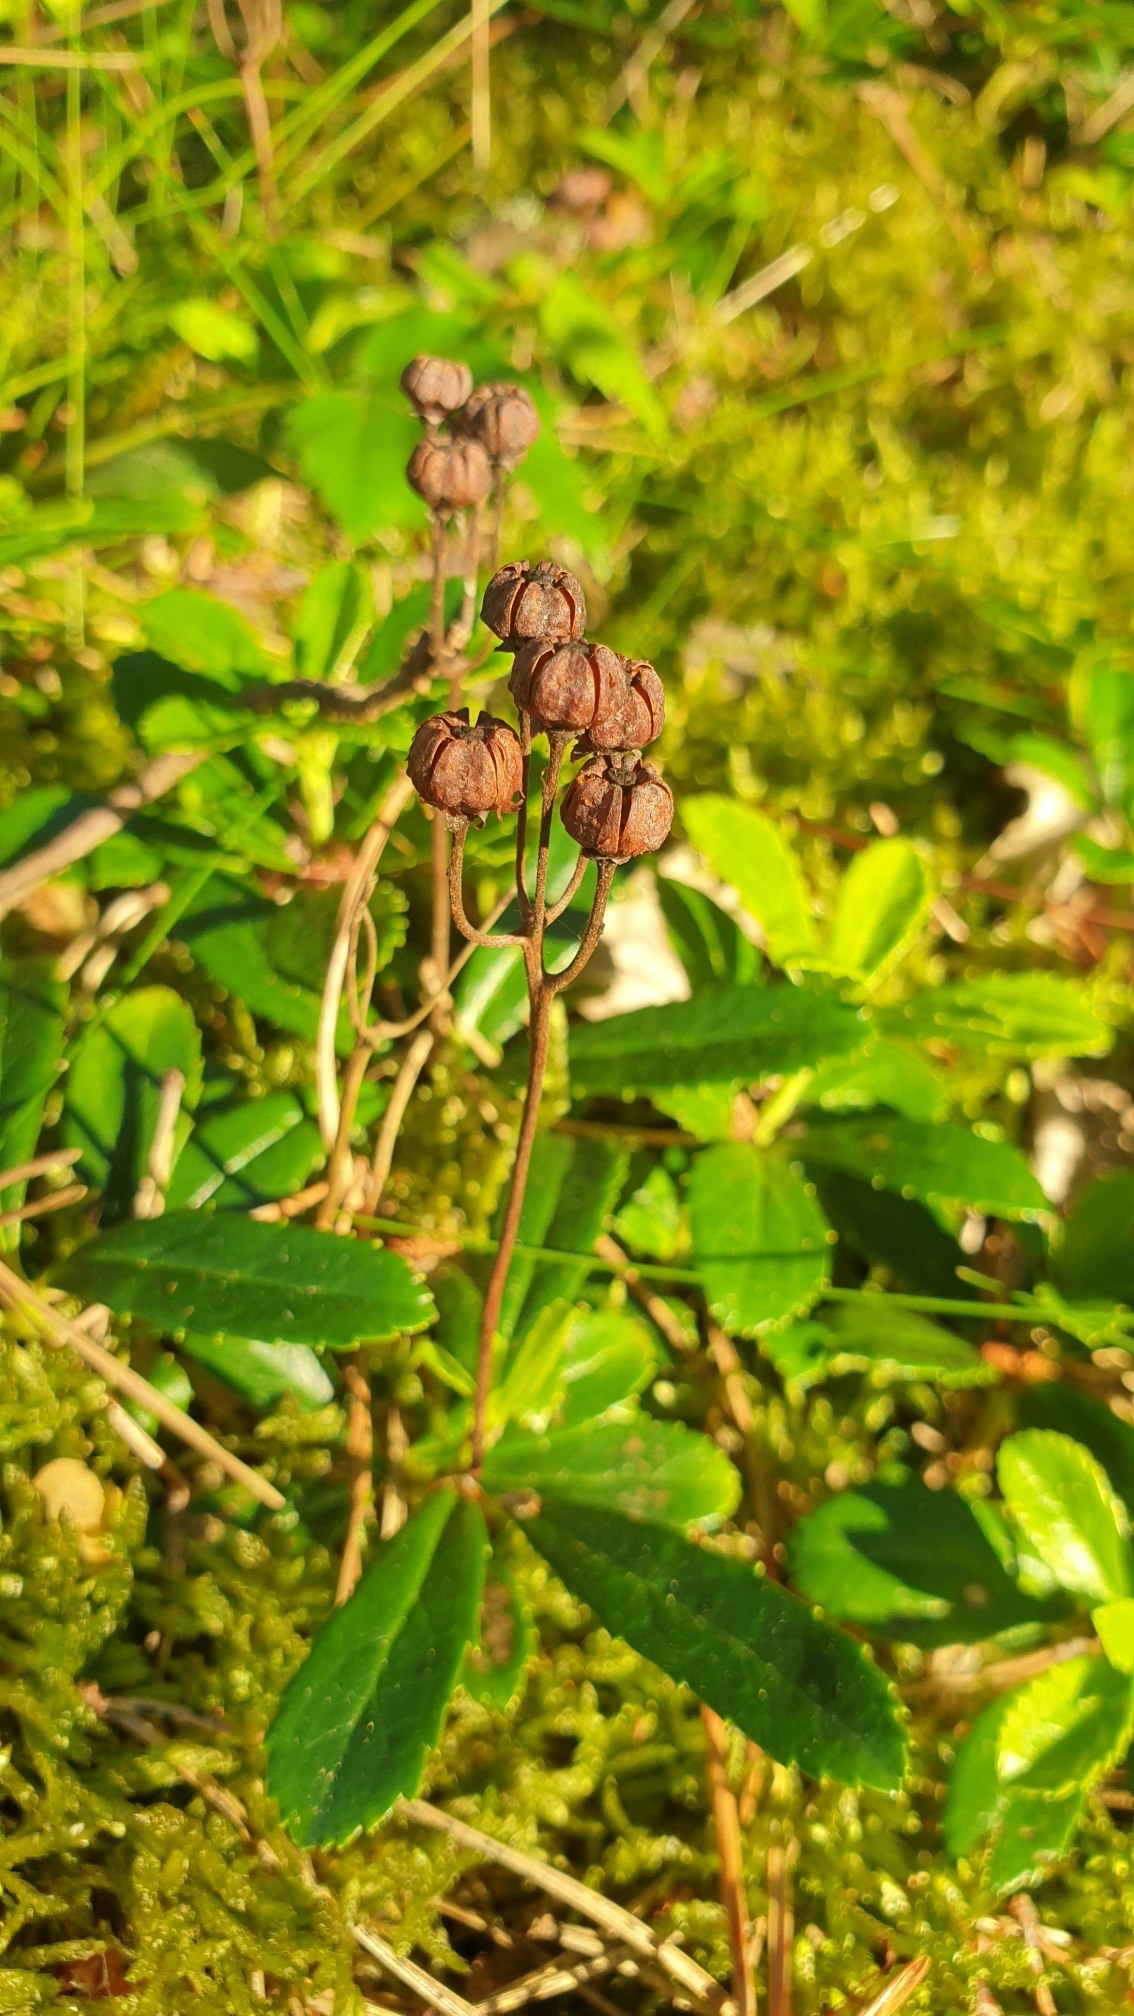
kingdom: Plantae
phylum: Tracheophyta
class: Magnoliopsida
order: Ericales
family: Ericaceae
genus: Chimaphila
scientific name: Chimaphila umbellata
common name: Skærm-vintergrøn
